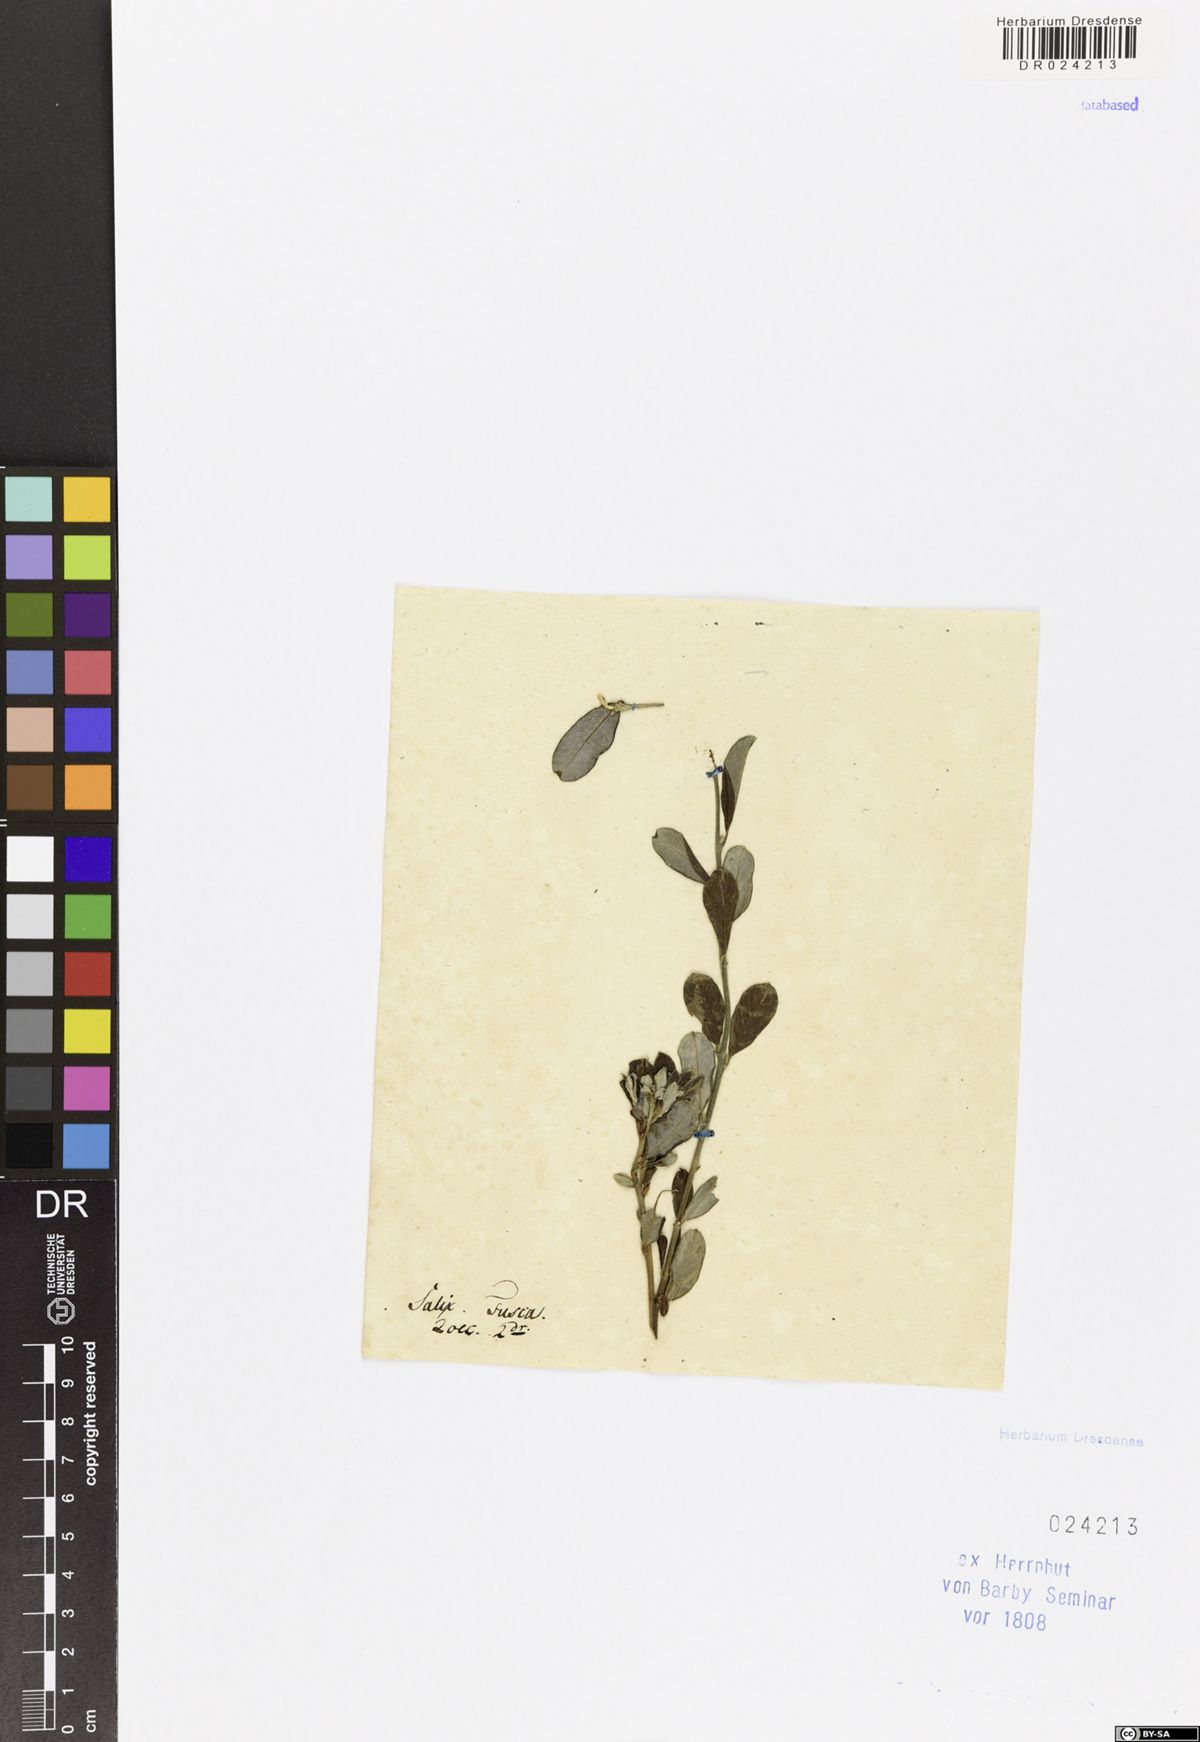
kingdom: Plantae
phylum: Tracheophyta
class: Magnoliopsida
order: Malpighiales
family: Salicaceae
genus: Salix
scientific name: Salix repens
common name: Creeping willow
